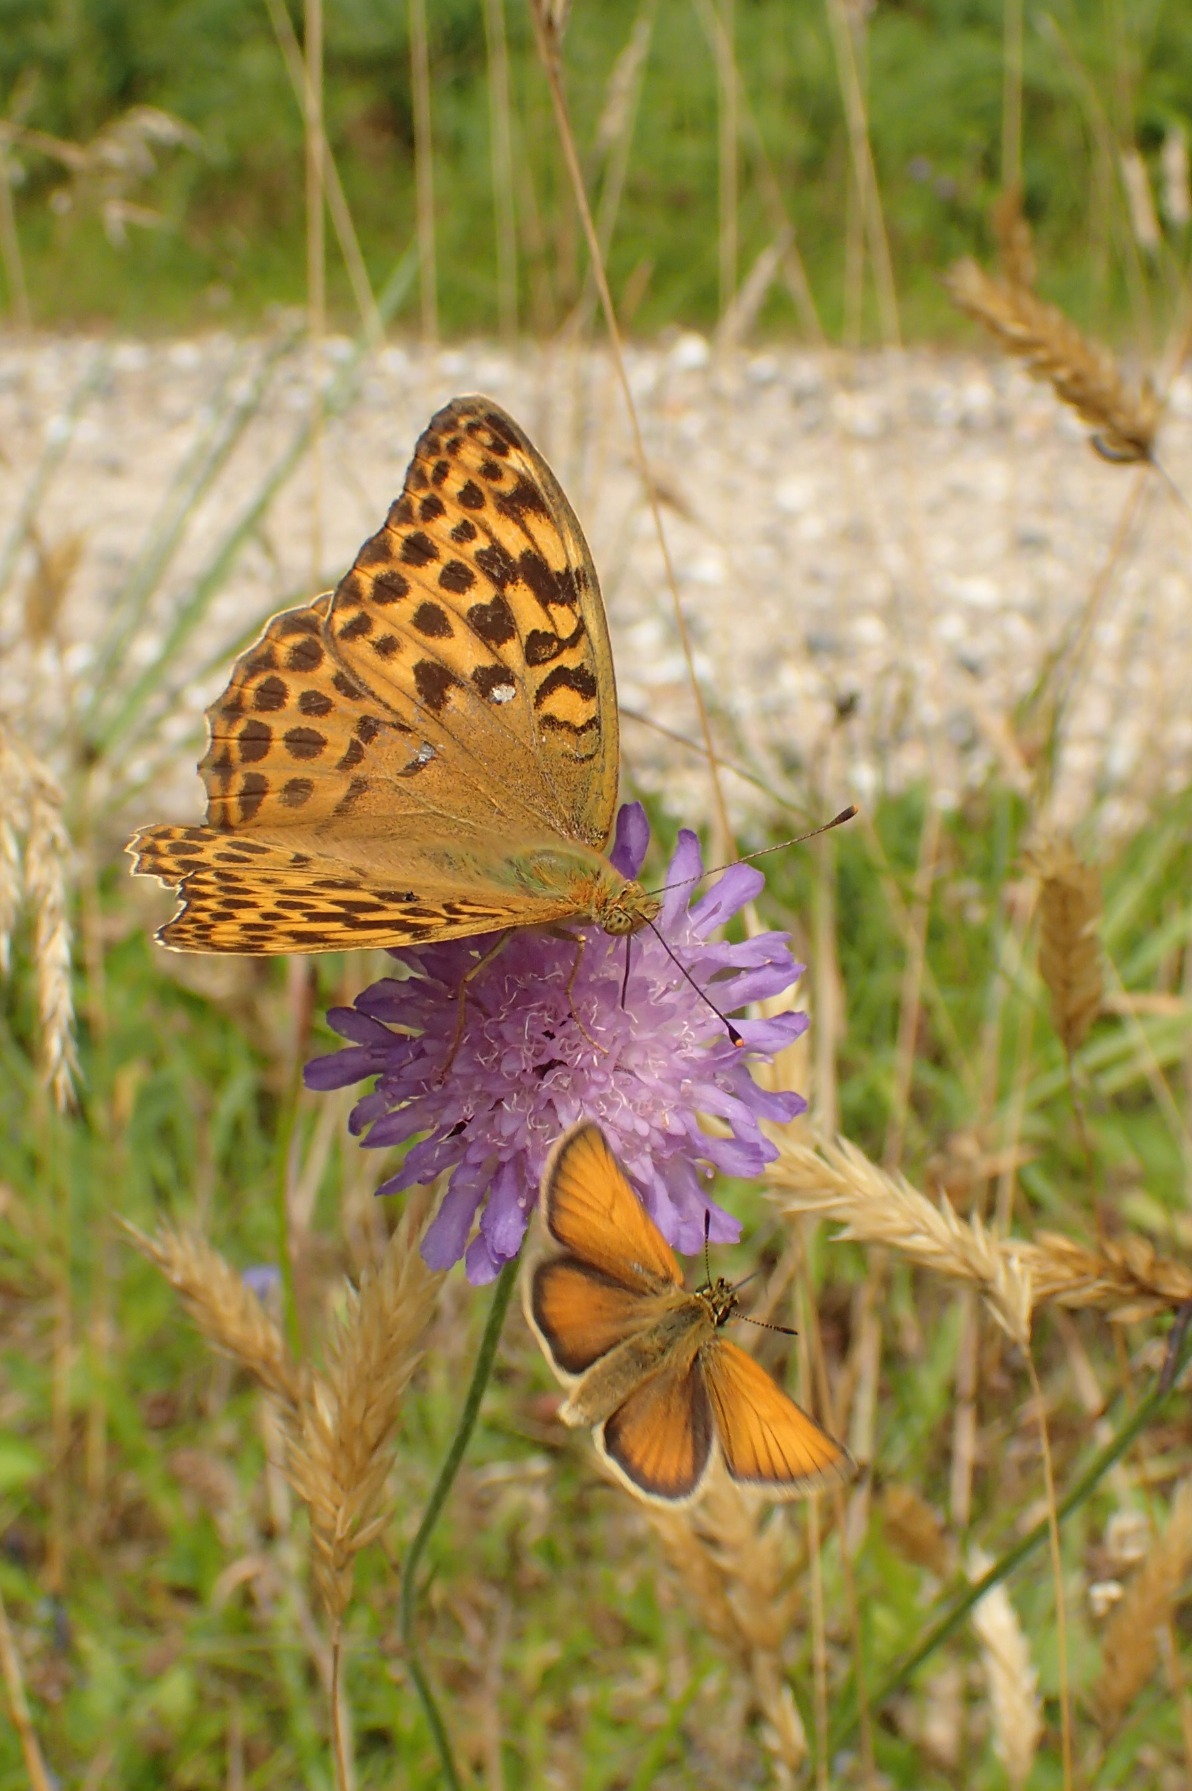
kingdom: Animalia
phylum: Arthropoda
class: Insecta
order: Lepidoptera
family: Nymphalidae
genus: Argynnis
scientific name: Argynnis paphia
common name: Kejserkåbe
